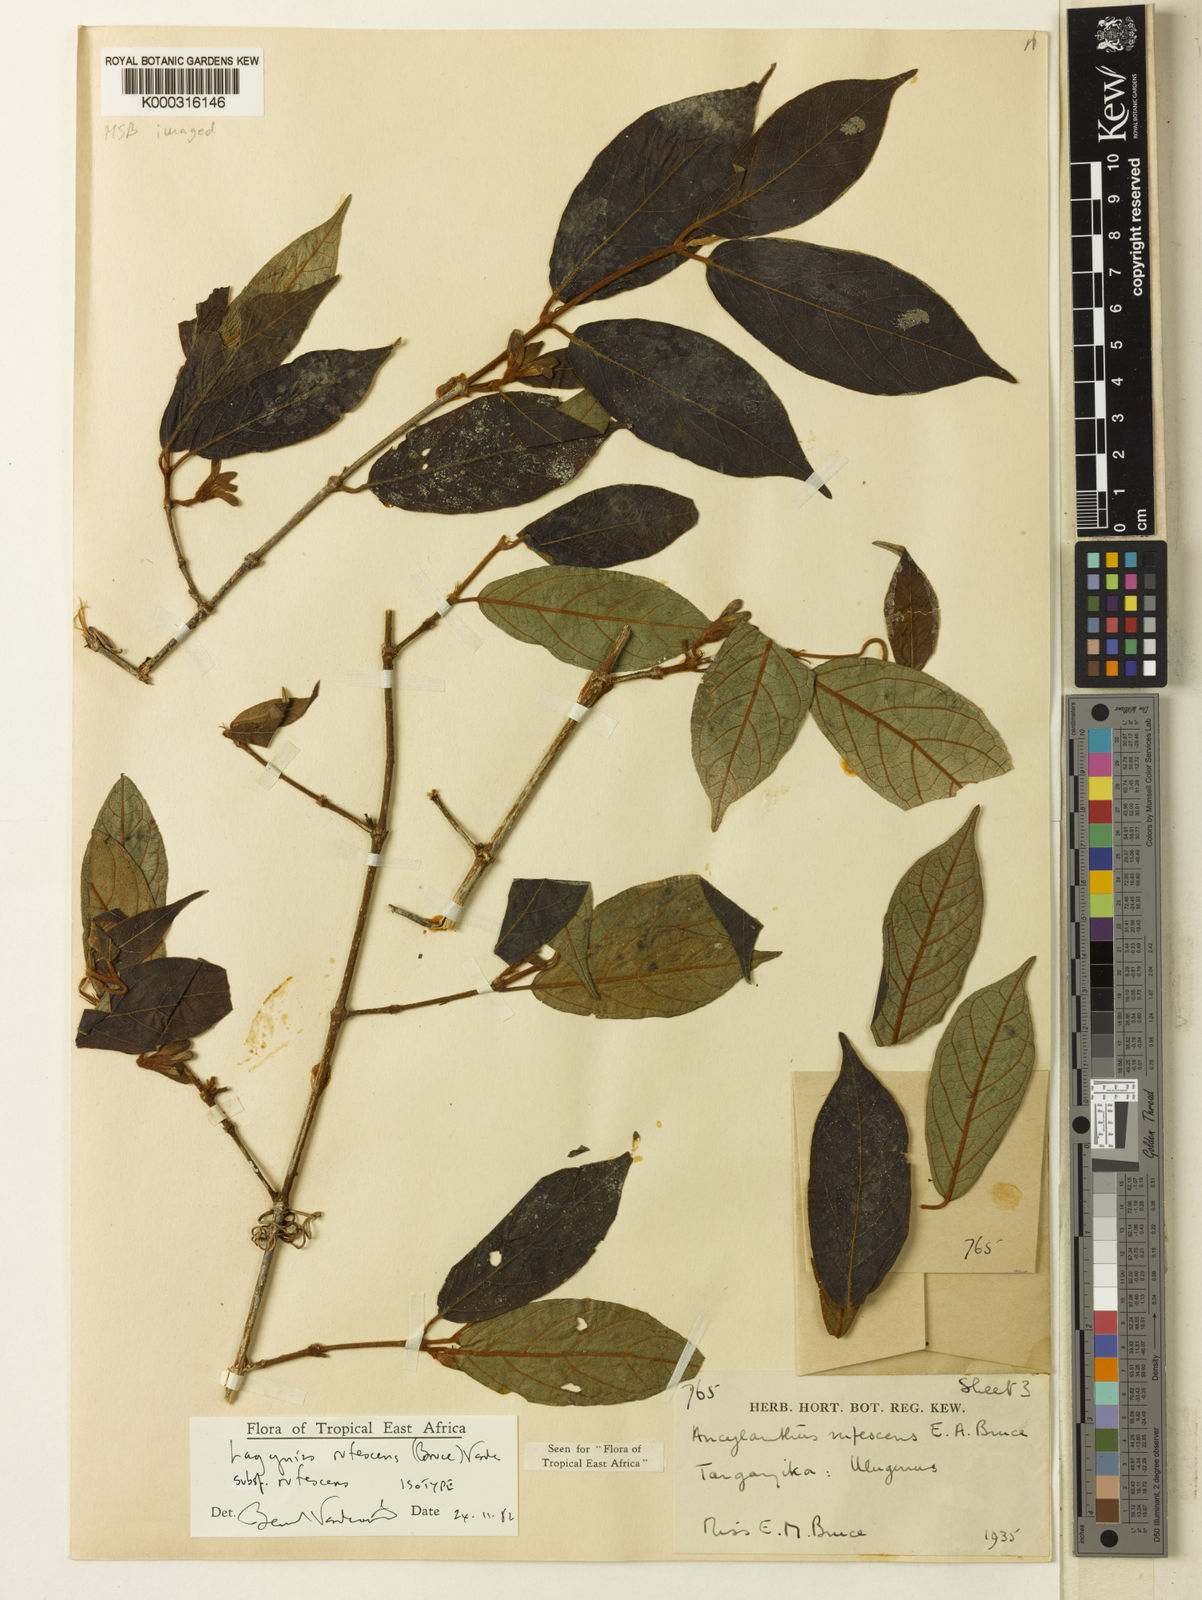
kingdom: Plantae
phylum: Tracheophyta
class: Magnoliopsida
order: Gentianales
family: Rubiaceae
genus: Vangueria
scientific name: Vangueria rufescens
